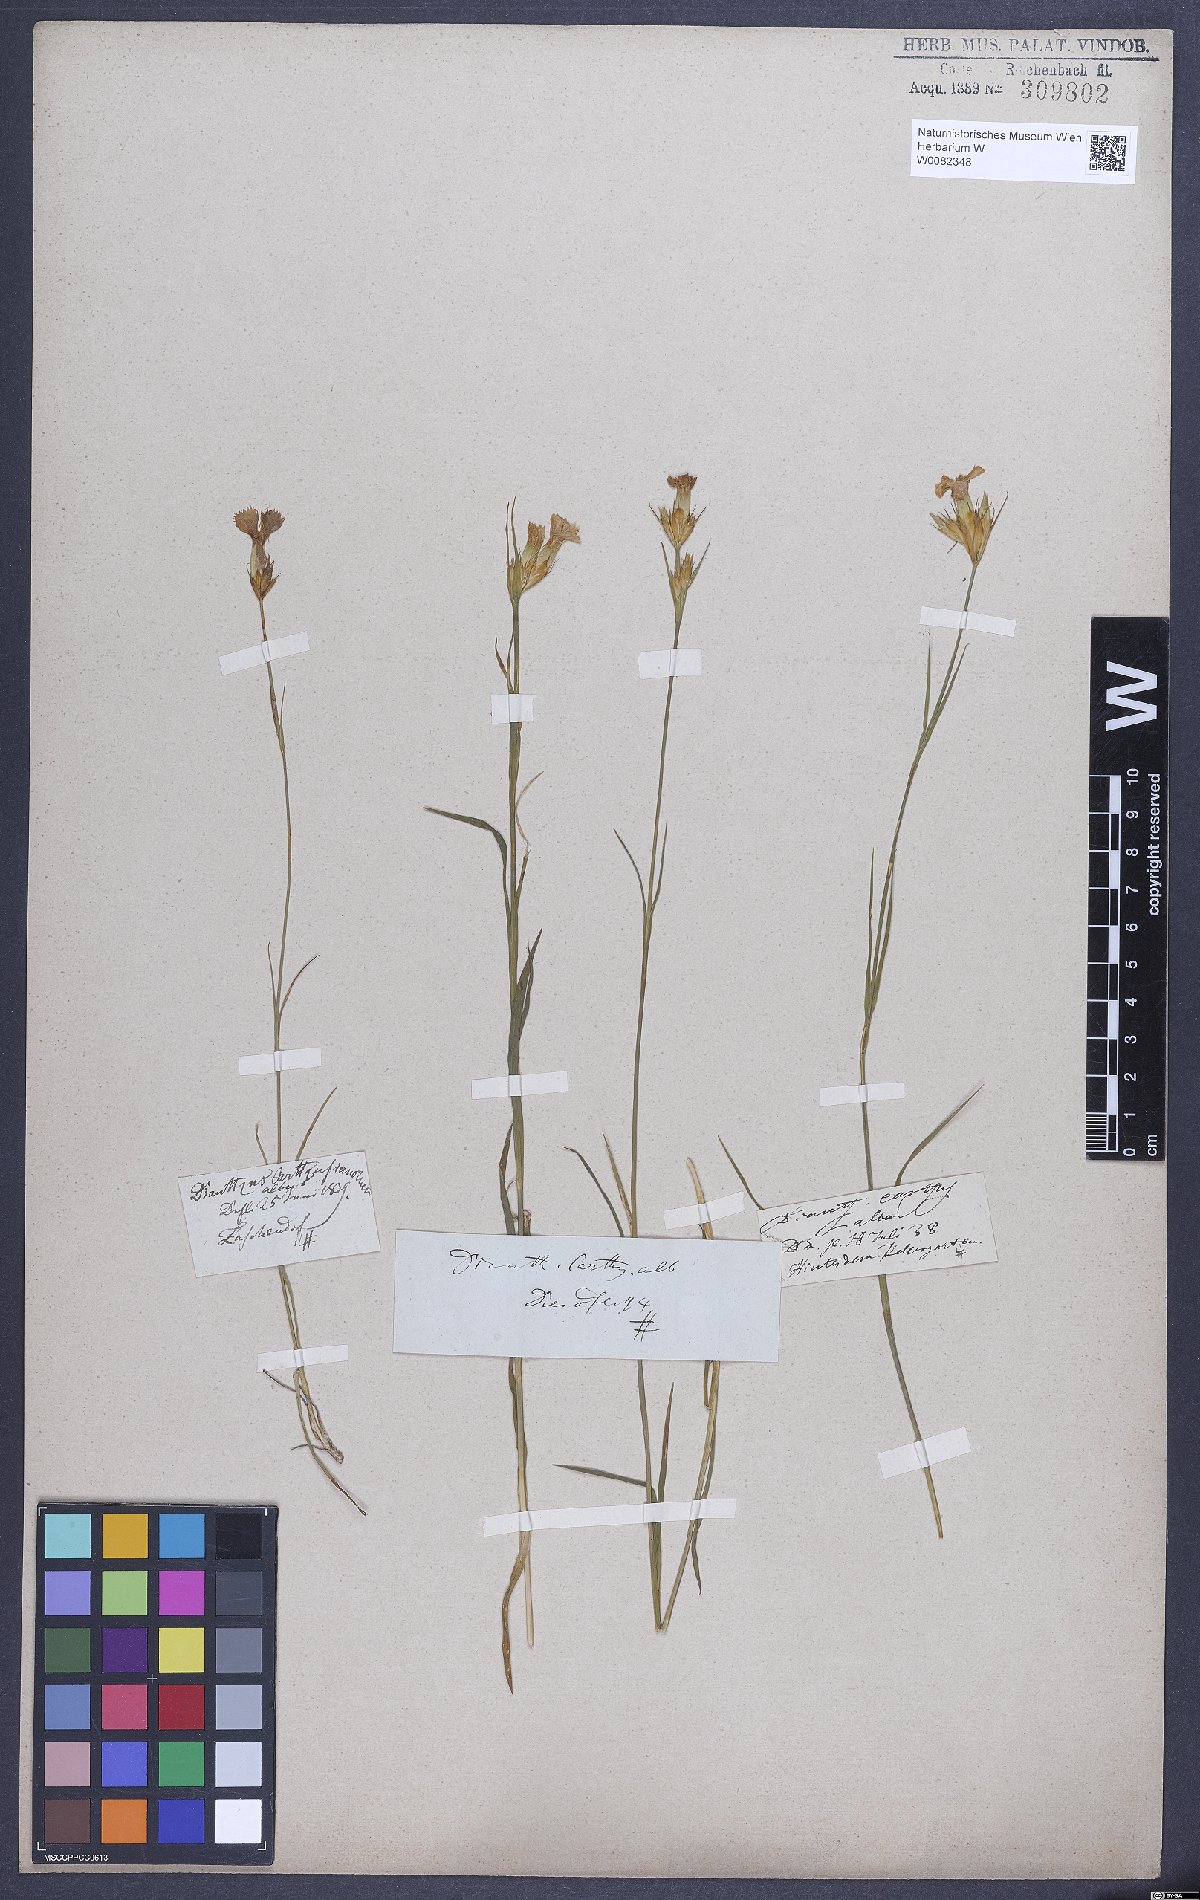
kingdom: Plantae
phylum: Tracheophyta
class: Magnoliopsida
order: Caryophyllales
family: Caryophyllaceae
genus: Dianthus
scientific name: Dianthus carthusianorum
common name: Carthusian pink
